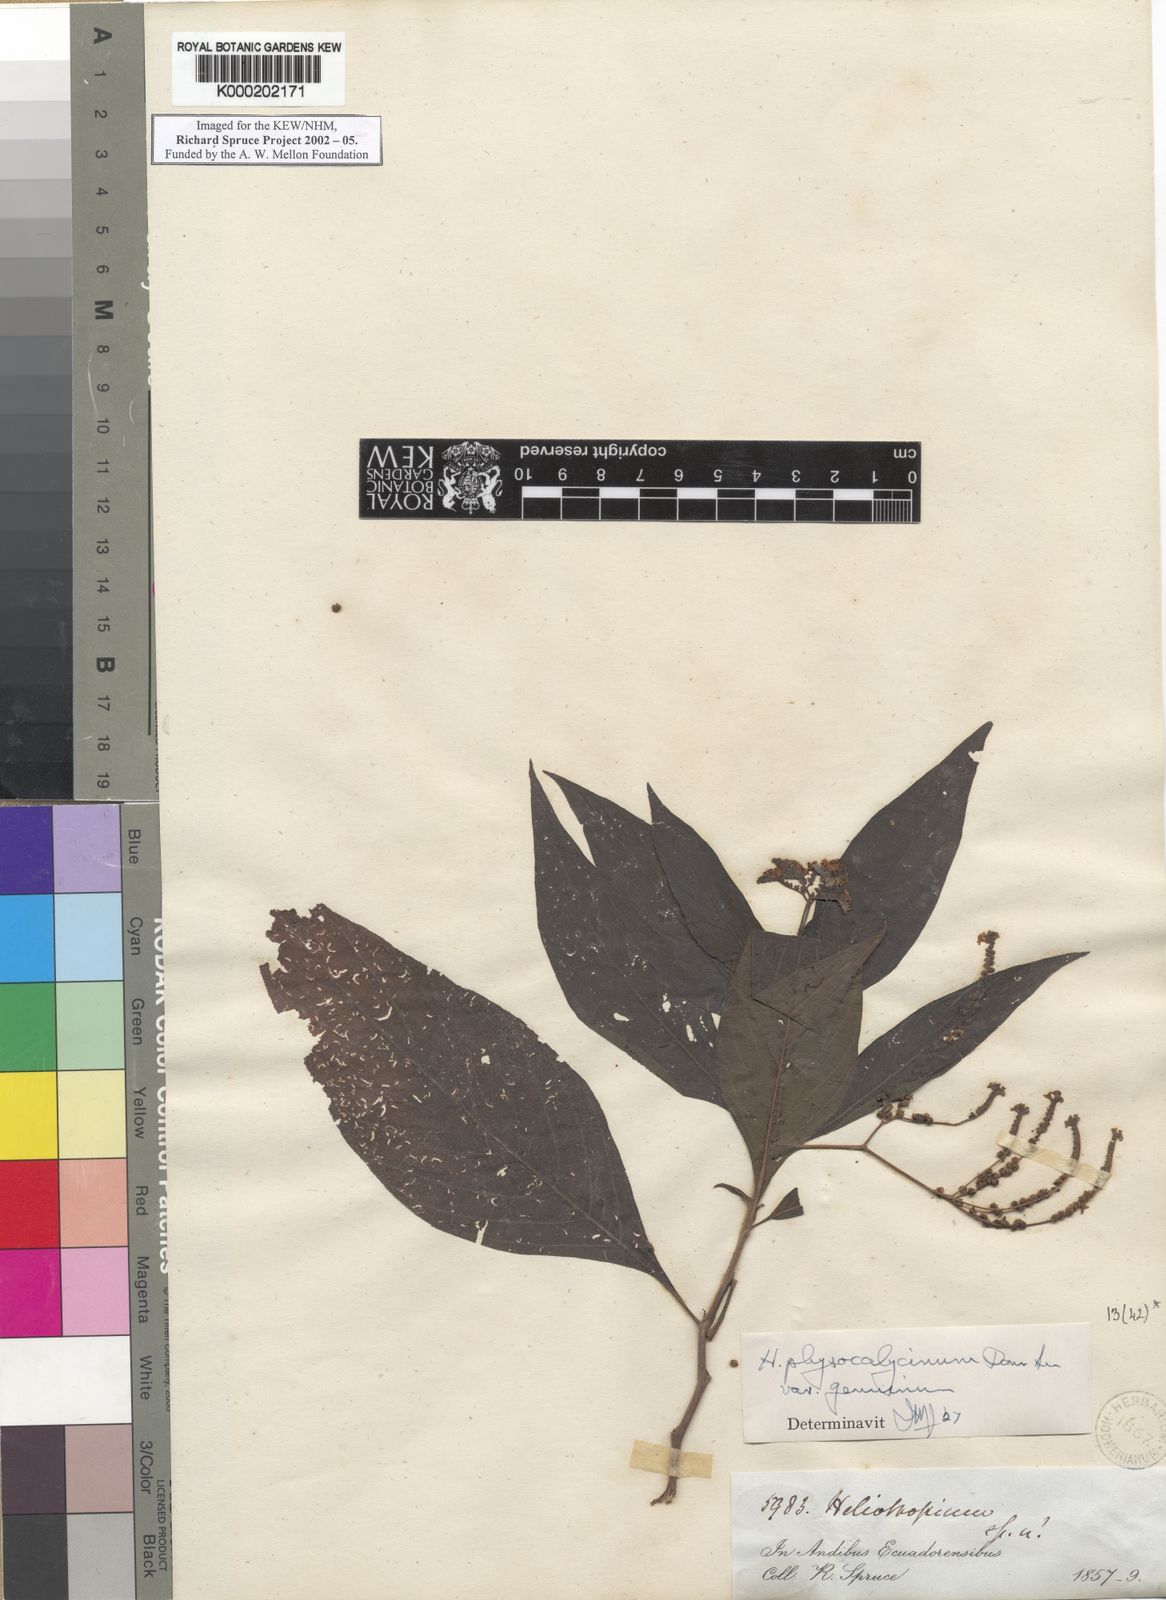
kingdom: Plantae
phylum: Tracheophyta
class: Magnoliopsida
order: Boraginales
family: Heliotropiaceae
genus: Heliotropium
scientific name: Heliotropium rufipilum
